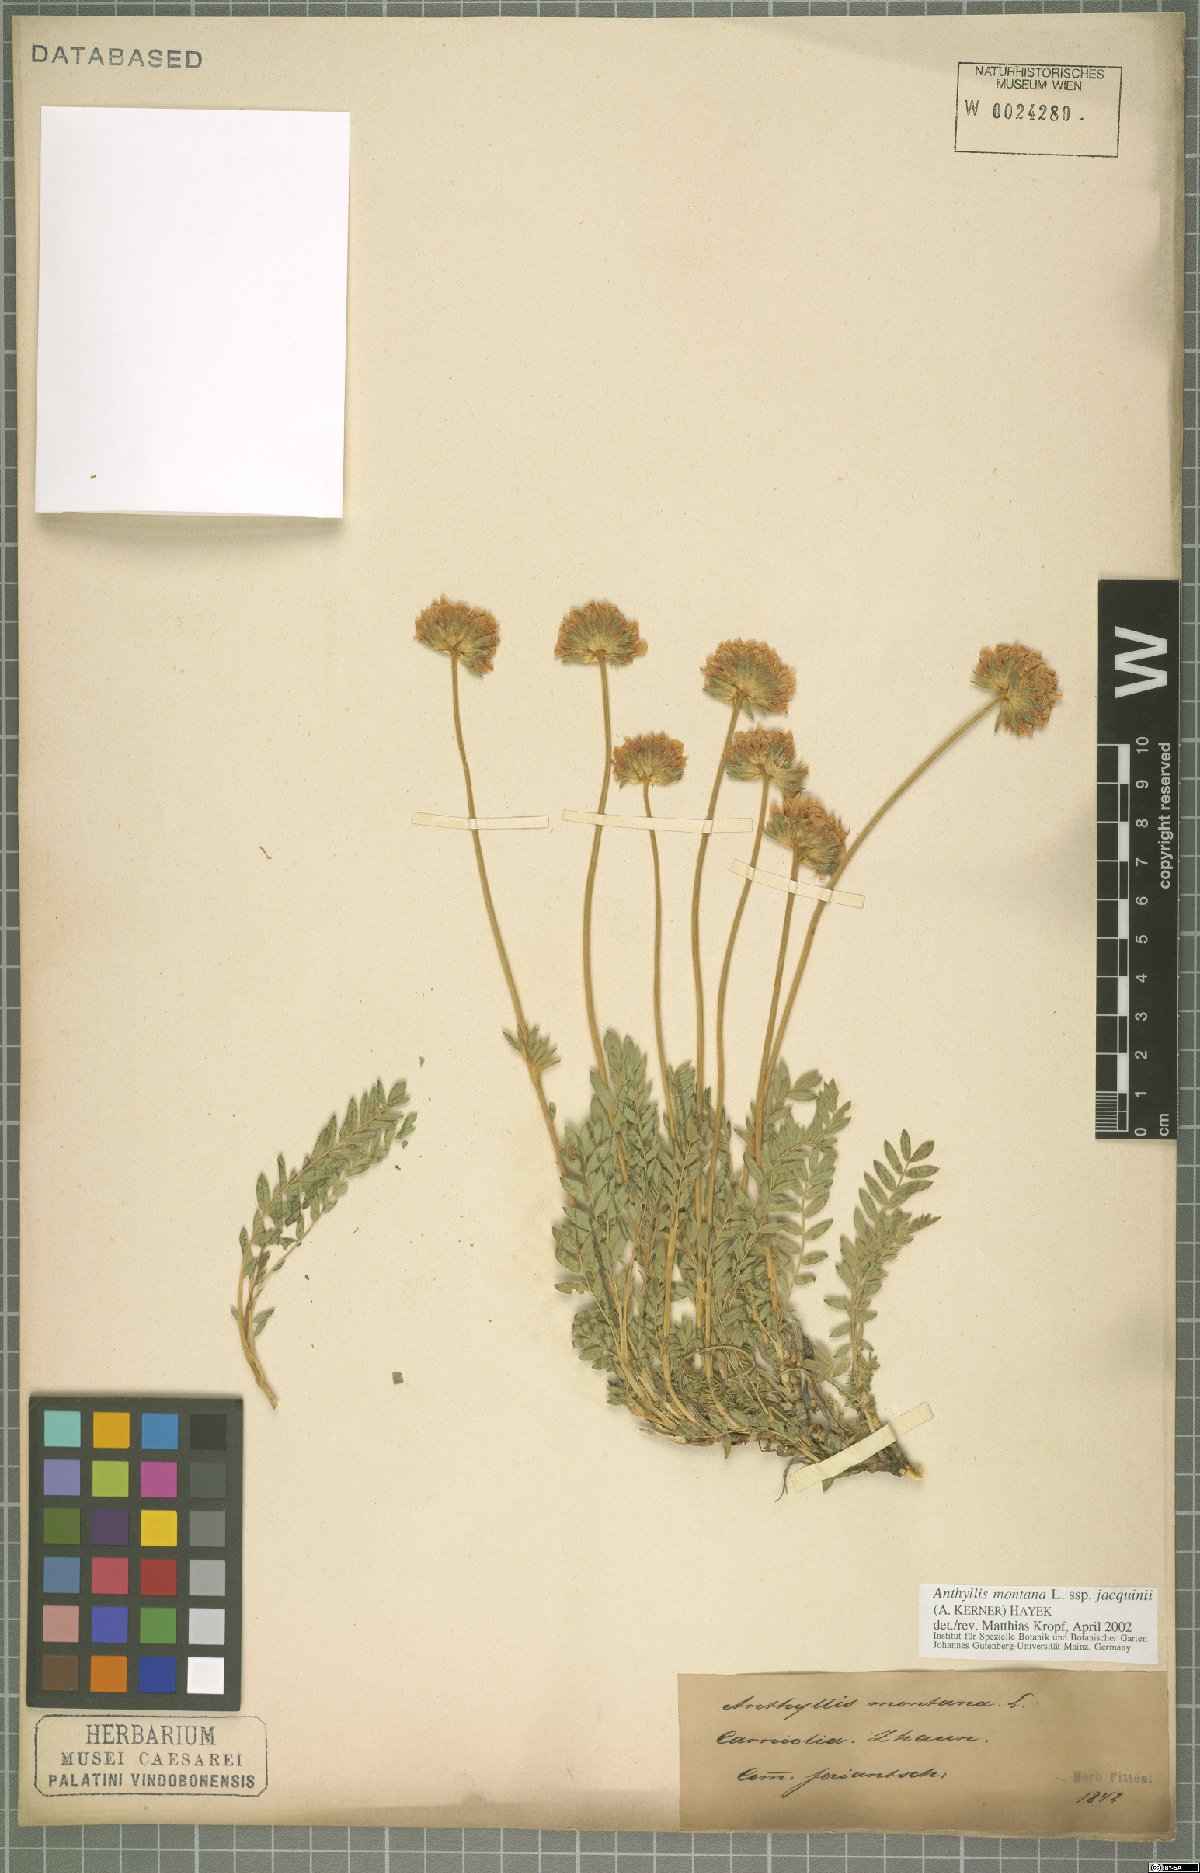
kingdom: Plantae
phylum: Tracheophyta
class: Magnoliopsida
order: Fabales
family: Fabaceae
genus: Anthyllis
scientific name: Anthyllis montana
